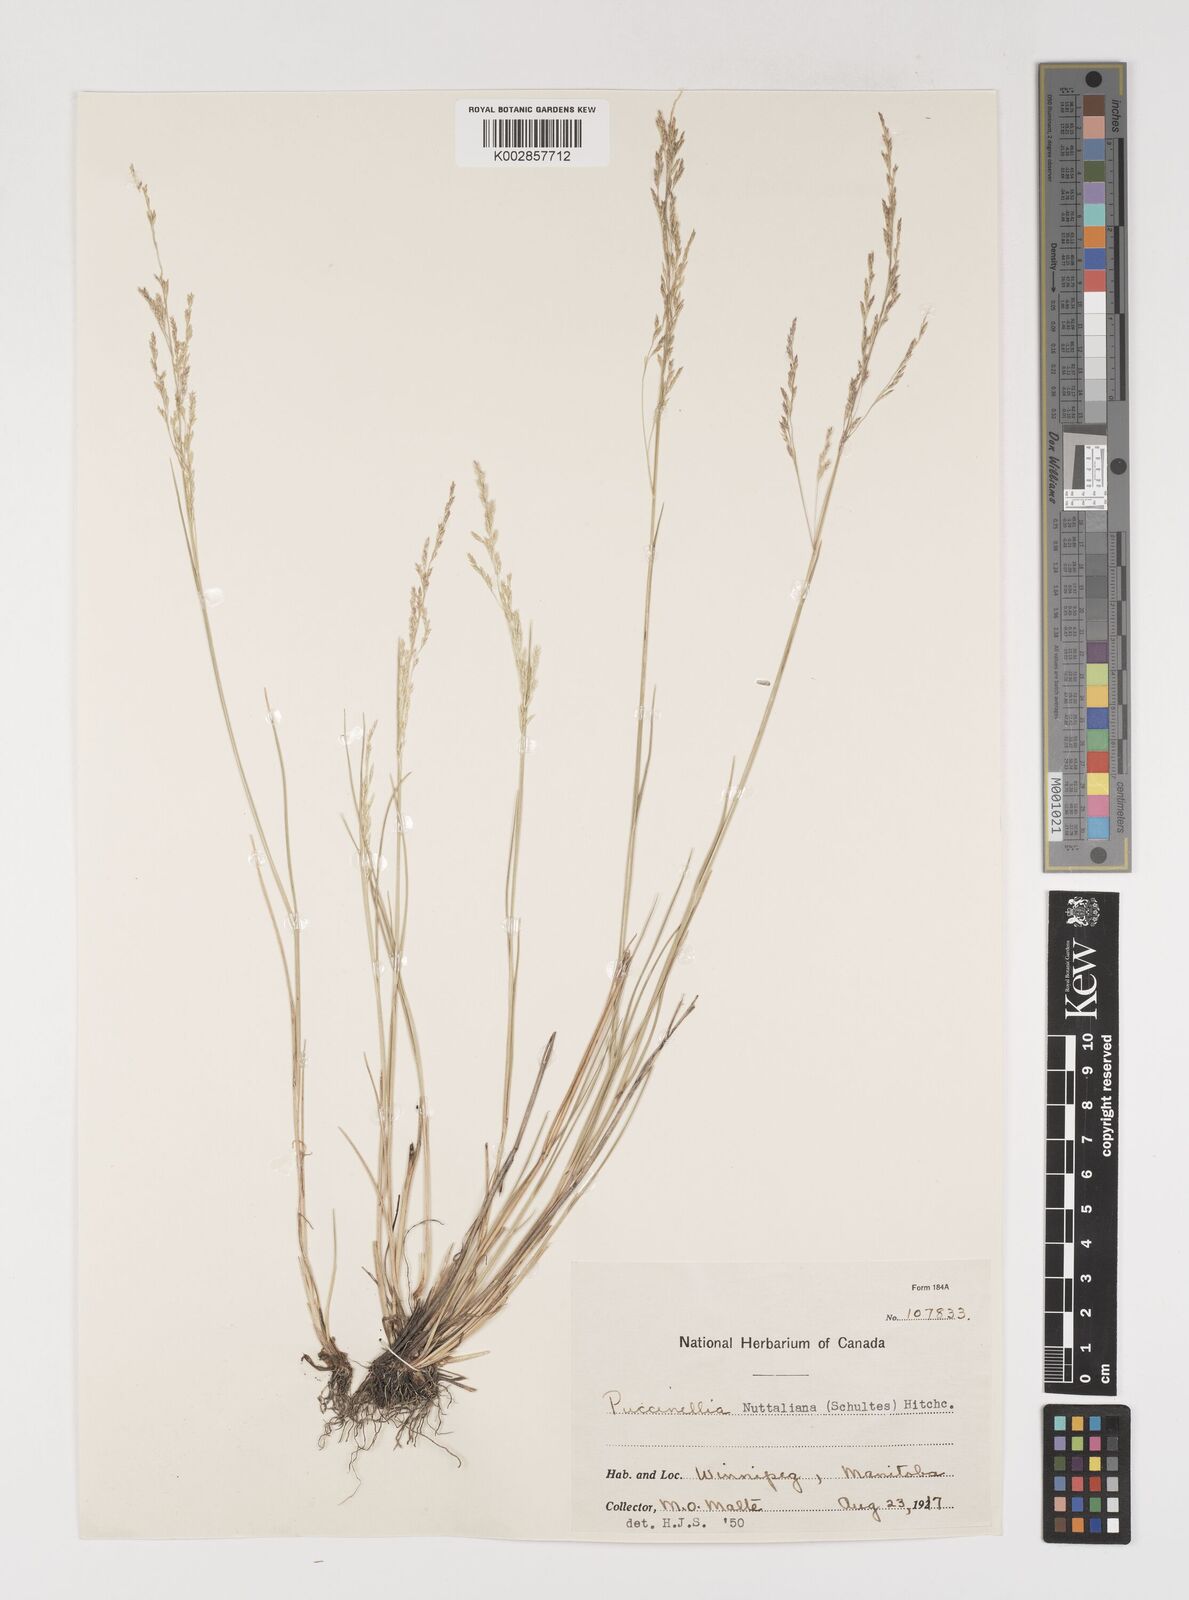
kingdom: Plantae
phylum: Tracheophyta
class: Liliopsida
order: Poales
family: Poaceae
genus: Puccinellia
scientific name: Puccinellia nuttalliana
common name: Nuttall's alkali grass
